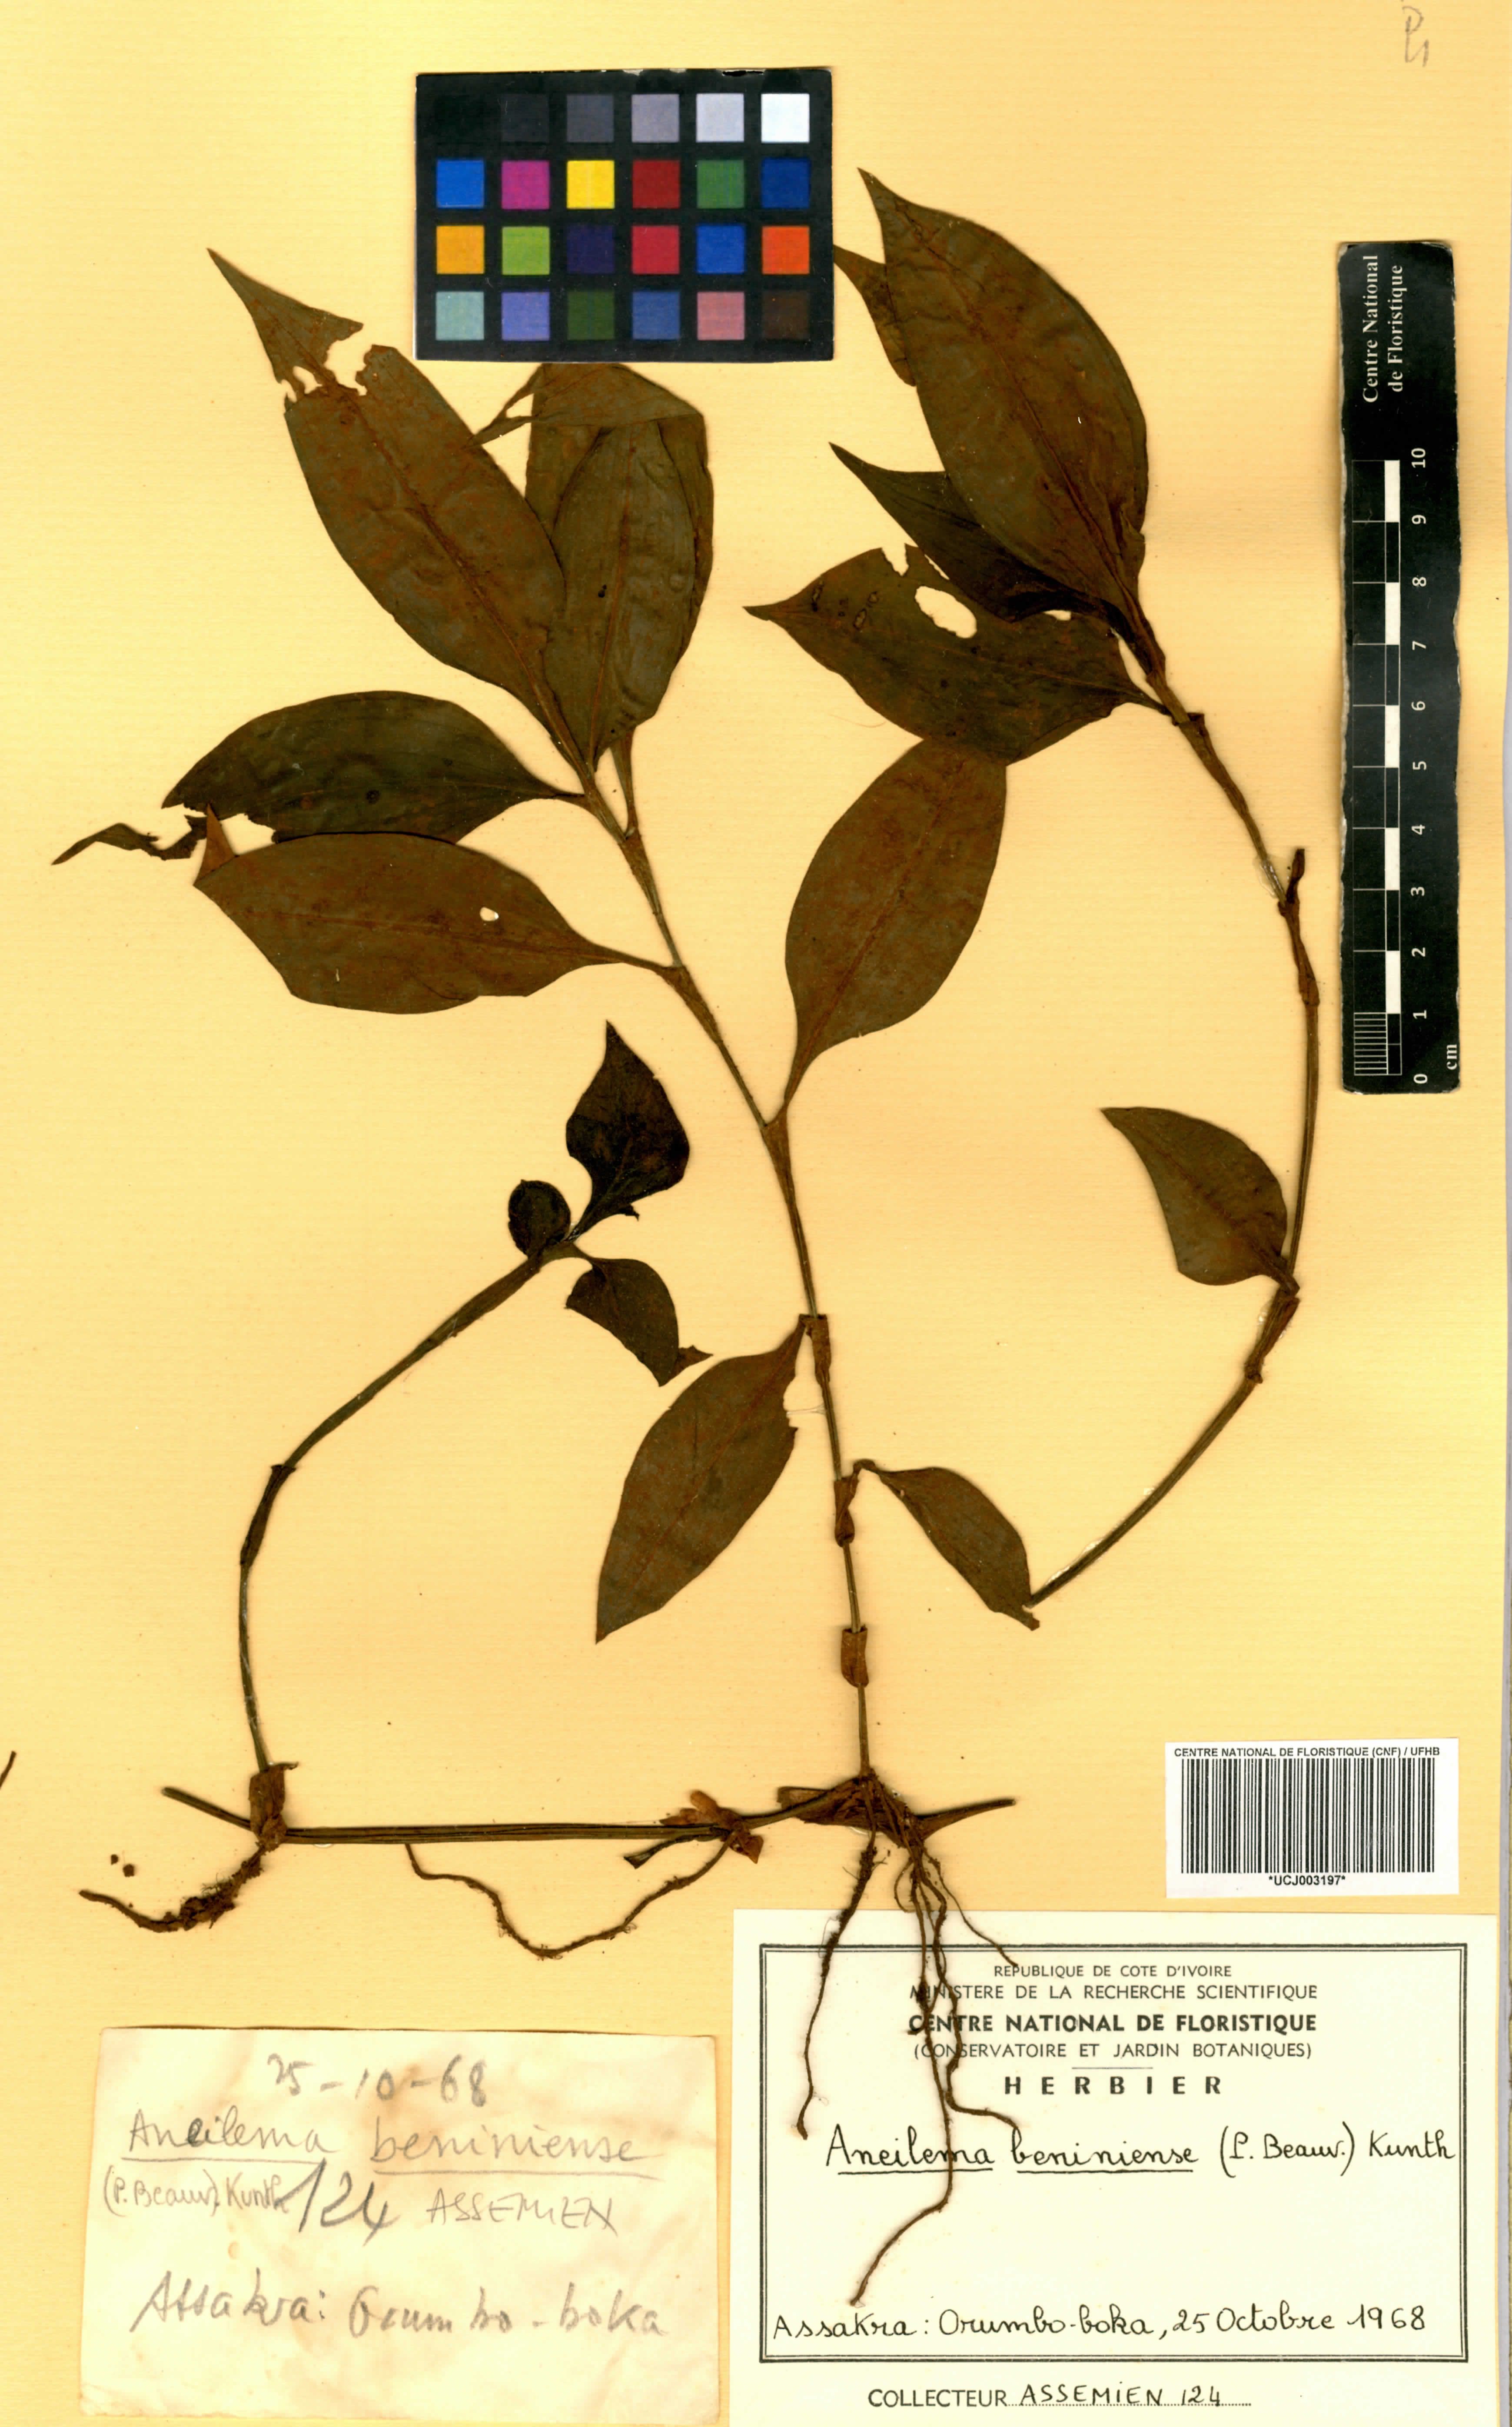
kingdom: Plantae
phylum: Tracheophyta
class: Liliopsida
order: Commelinales
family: Commelinaceae
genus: Aneilema
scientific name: Aneilema beniniense
